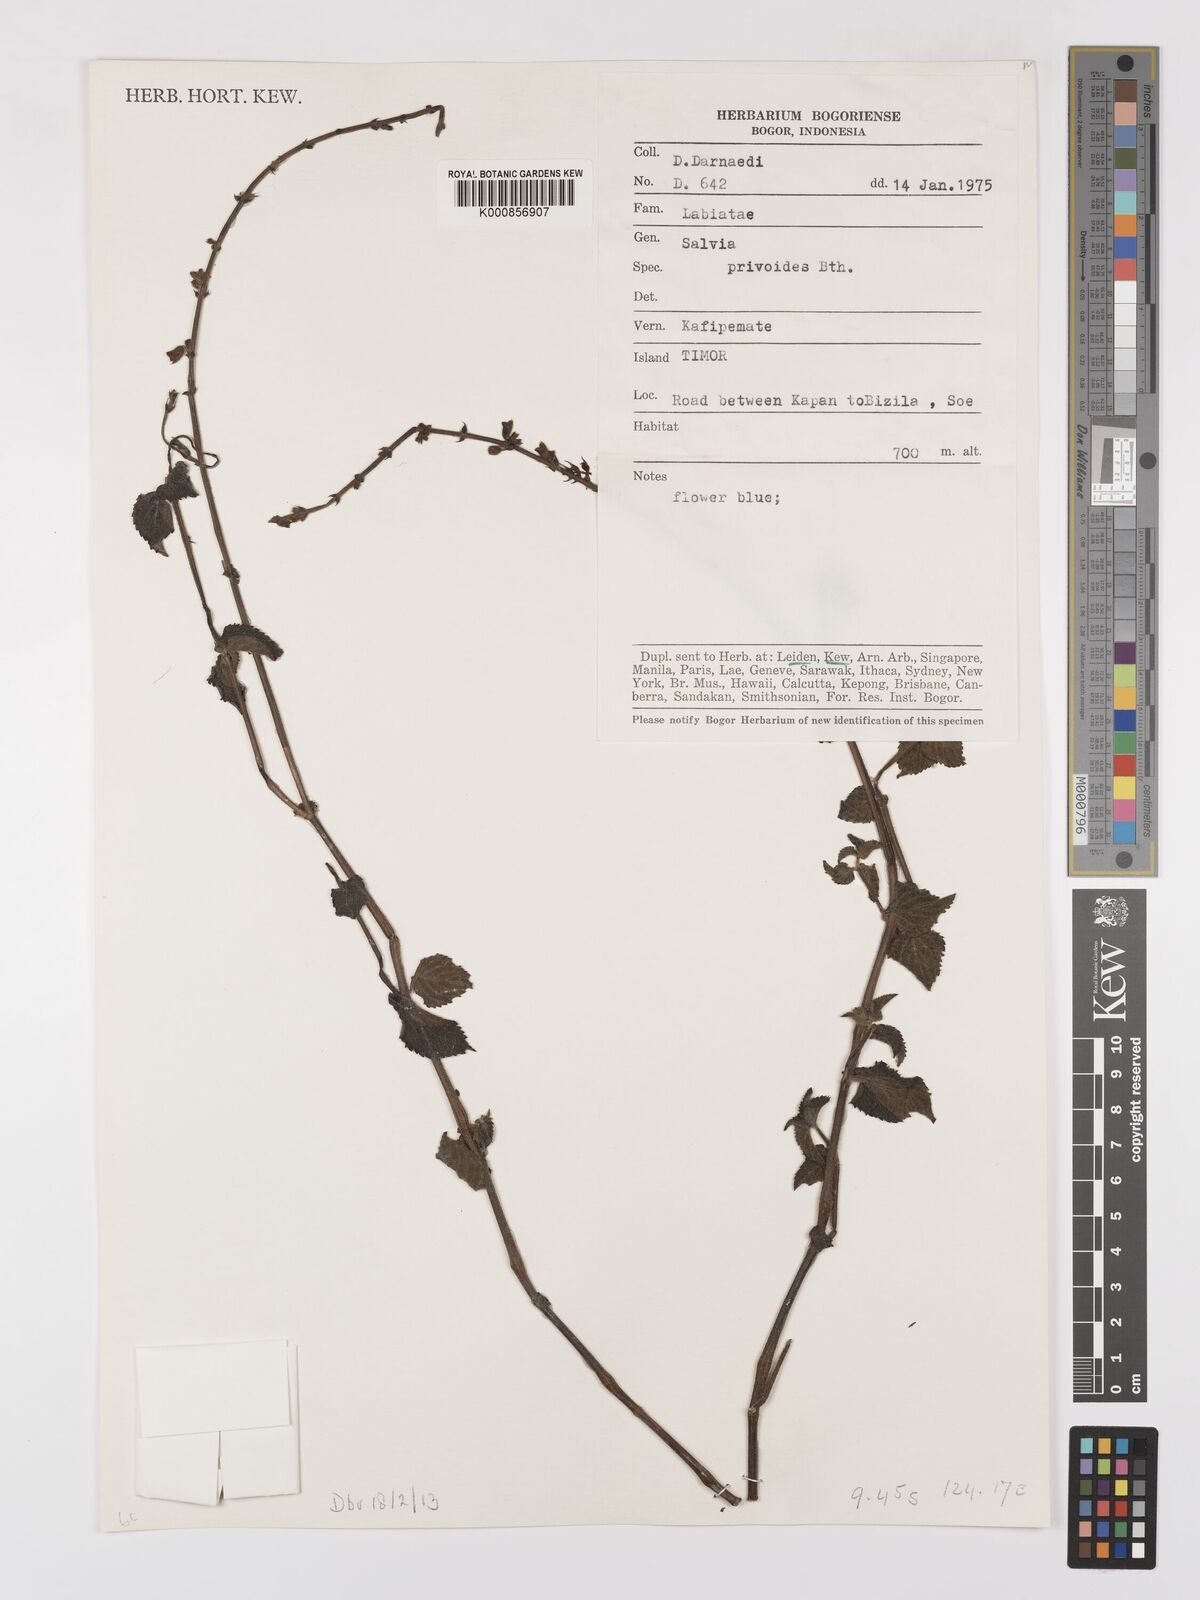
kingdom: Plantae
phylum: Tracheophyta
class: Magnoliopsida
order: Lamiales
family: Lamiaceae
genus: Salvia
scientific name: Salvia misella
